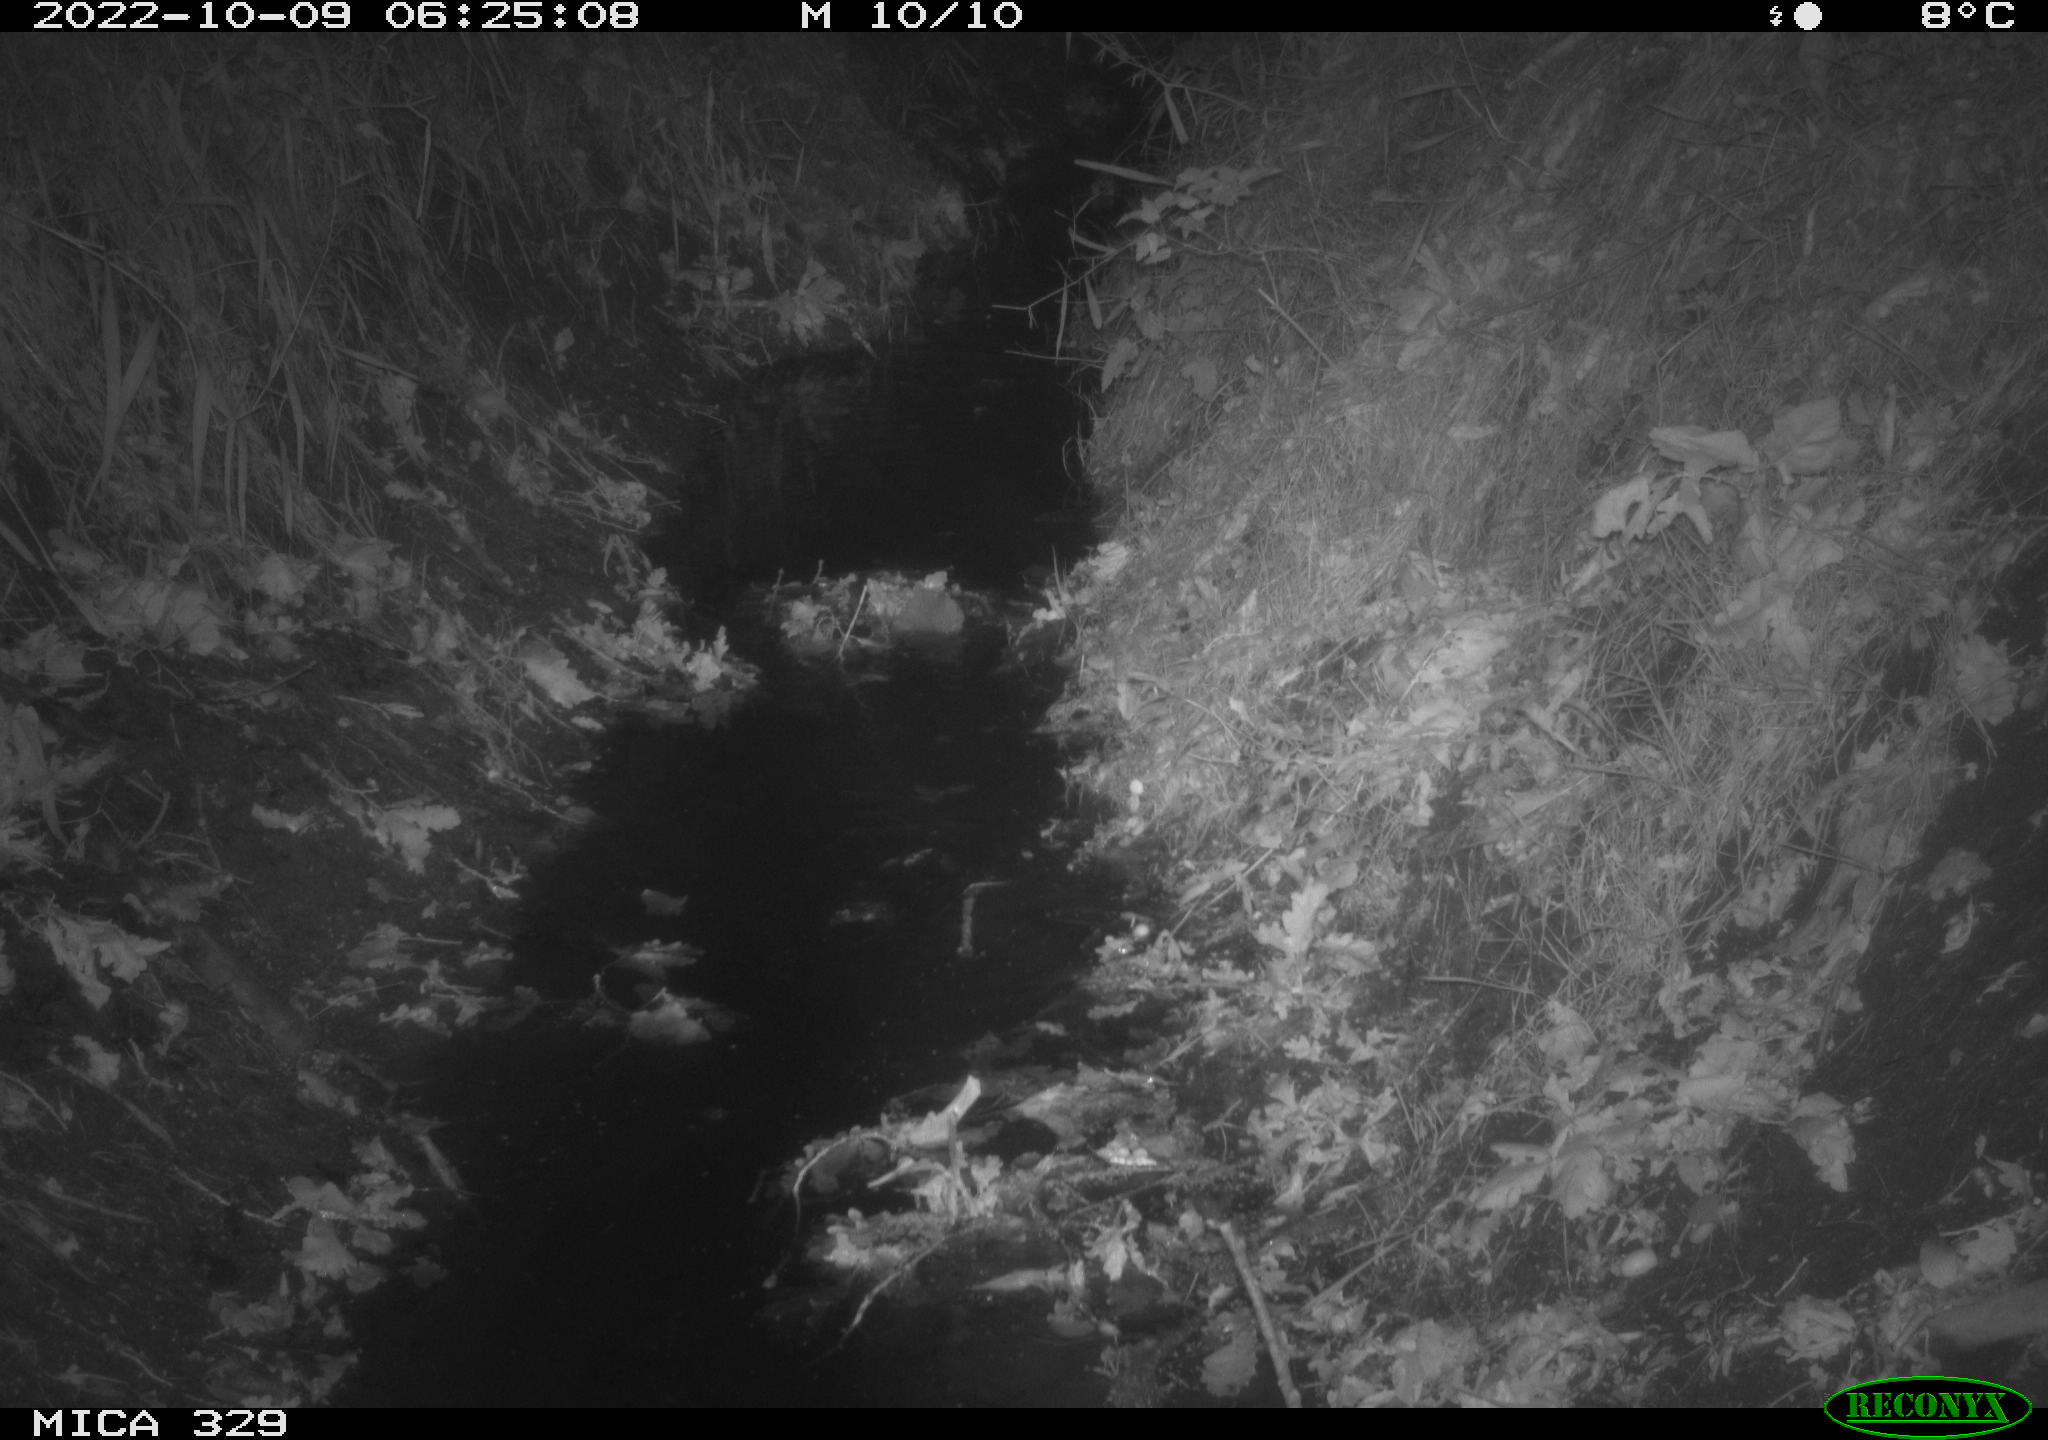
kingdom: Animalia
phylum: Chordata
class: Mammalia
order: Rodentia
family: Cricetidae
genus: Ondatra
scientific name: Ondatra zibethicus
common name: Muskrat
